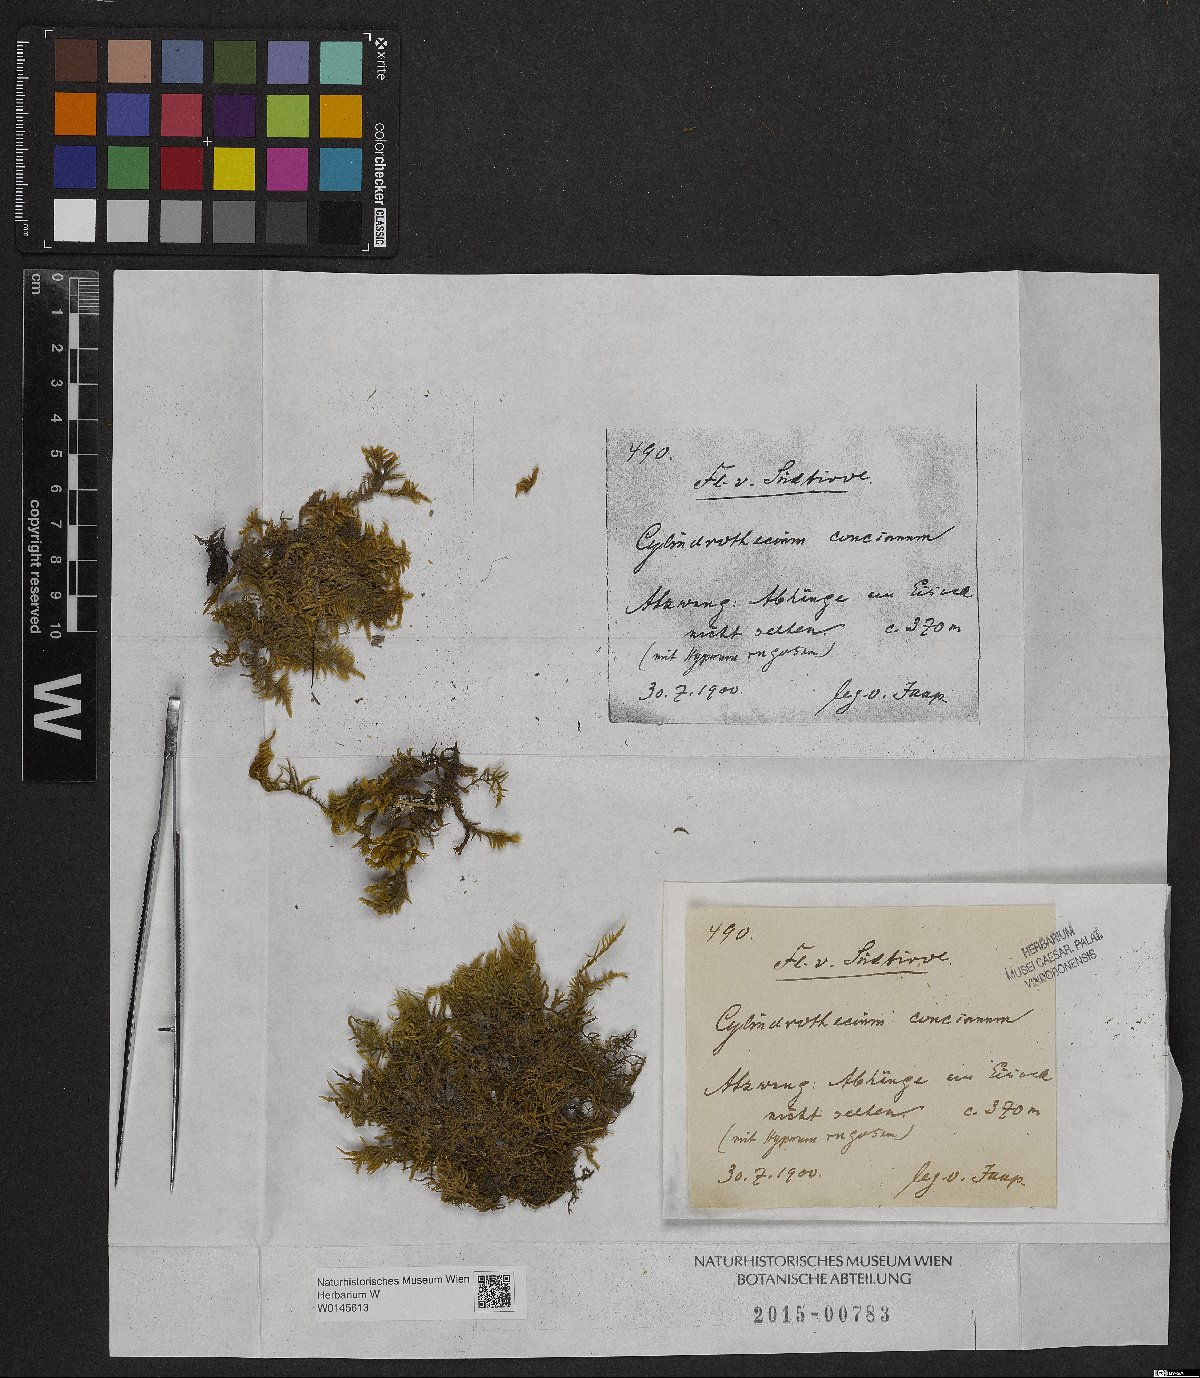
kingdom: Plantae
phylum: Bryophyta
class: Bryopsida
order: Hypnales
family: Entodontaceae
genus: Entodon
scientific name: Entodon concinnus
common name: Montagne's cylinder-moss
